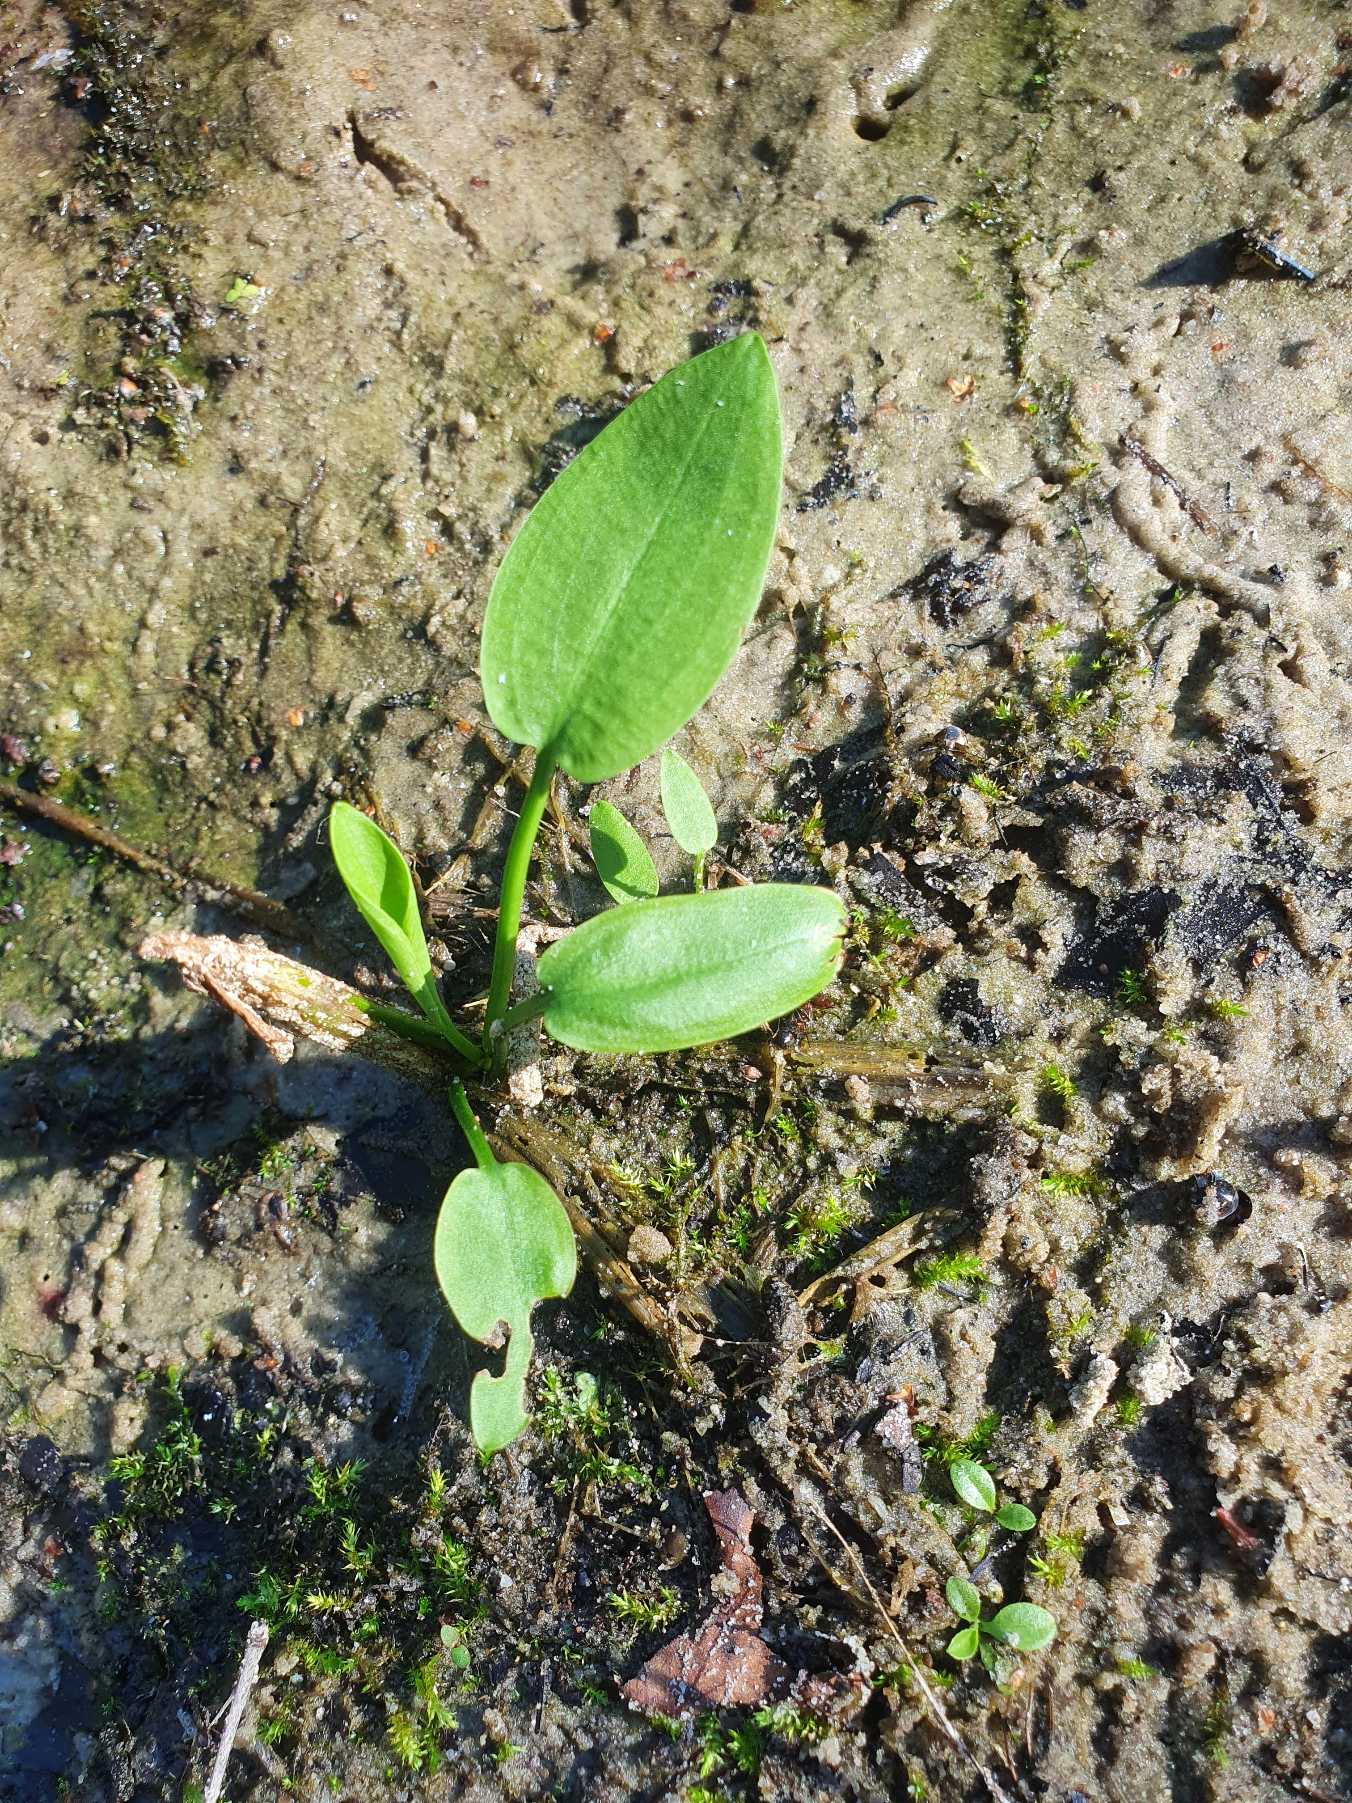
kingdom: Plantae
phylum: Tracheophyta
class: Liliopsida
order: Alismatales
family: Alismataceae
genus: Alisma
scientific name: Alisma plantago-aquatica
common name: Vejbred-skeblad
